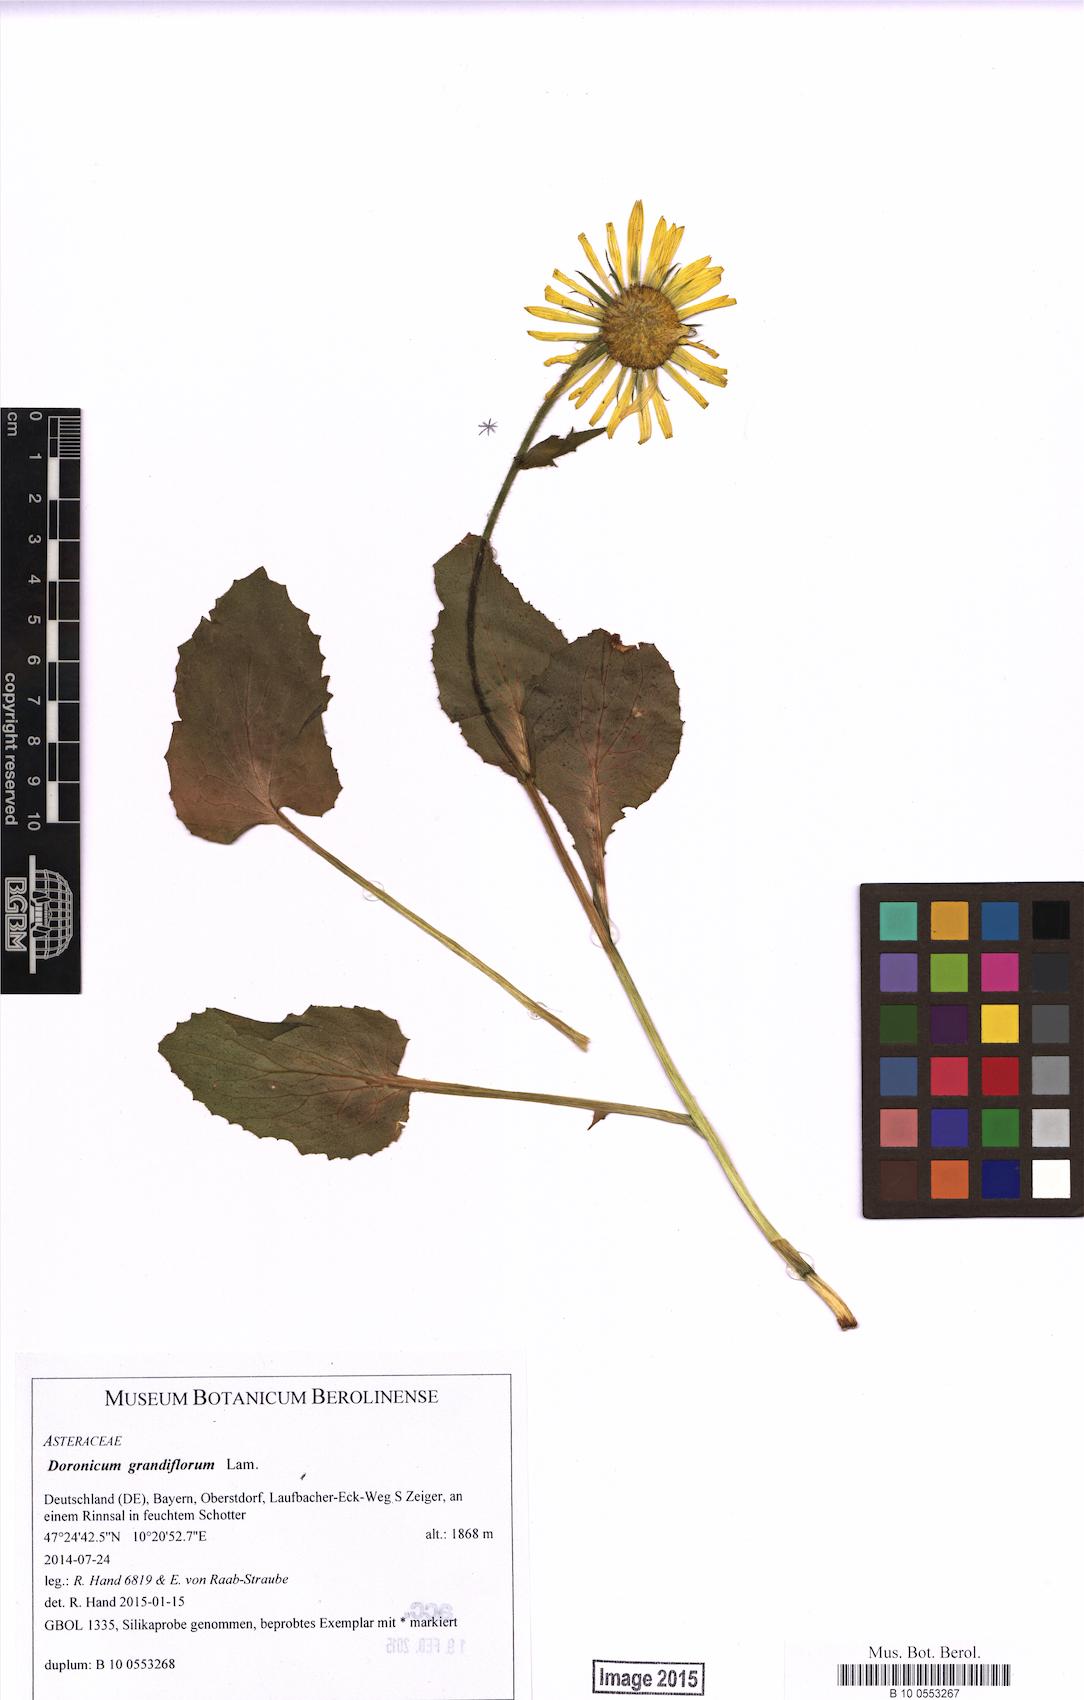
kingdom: Plantae
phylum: Tracheophyta
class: Magnoliopsida
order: Asterales
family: Asteraceae
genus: Doronicum
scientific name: Doronicum grandiflorum
